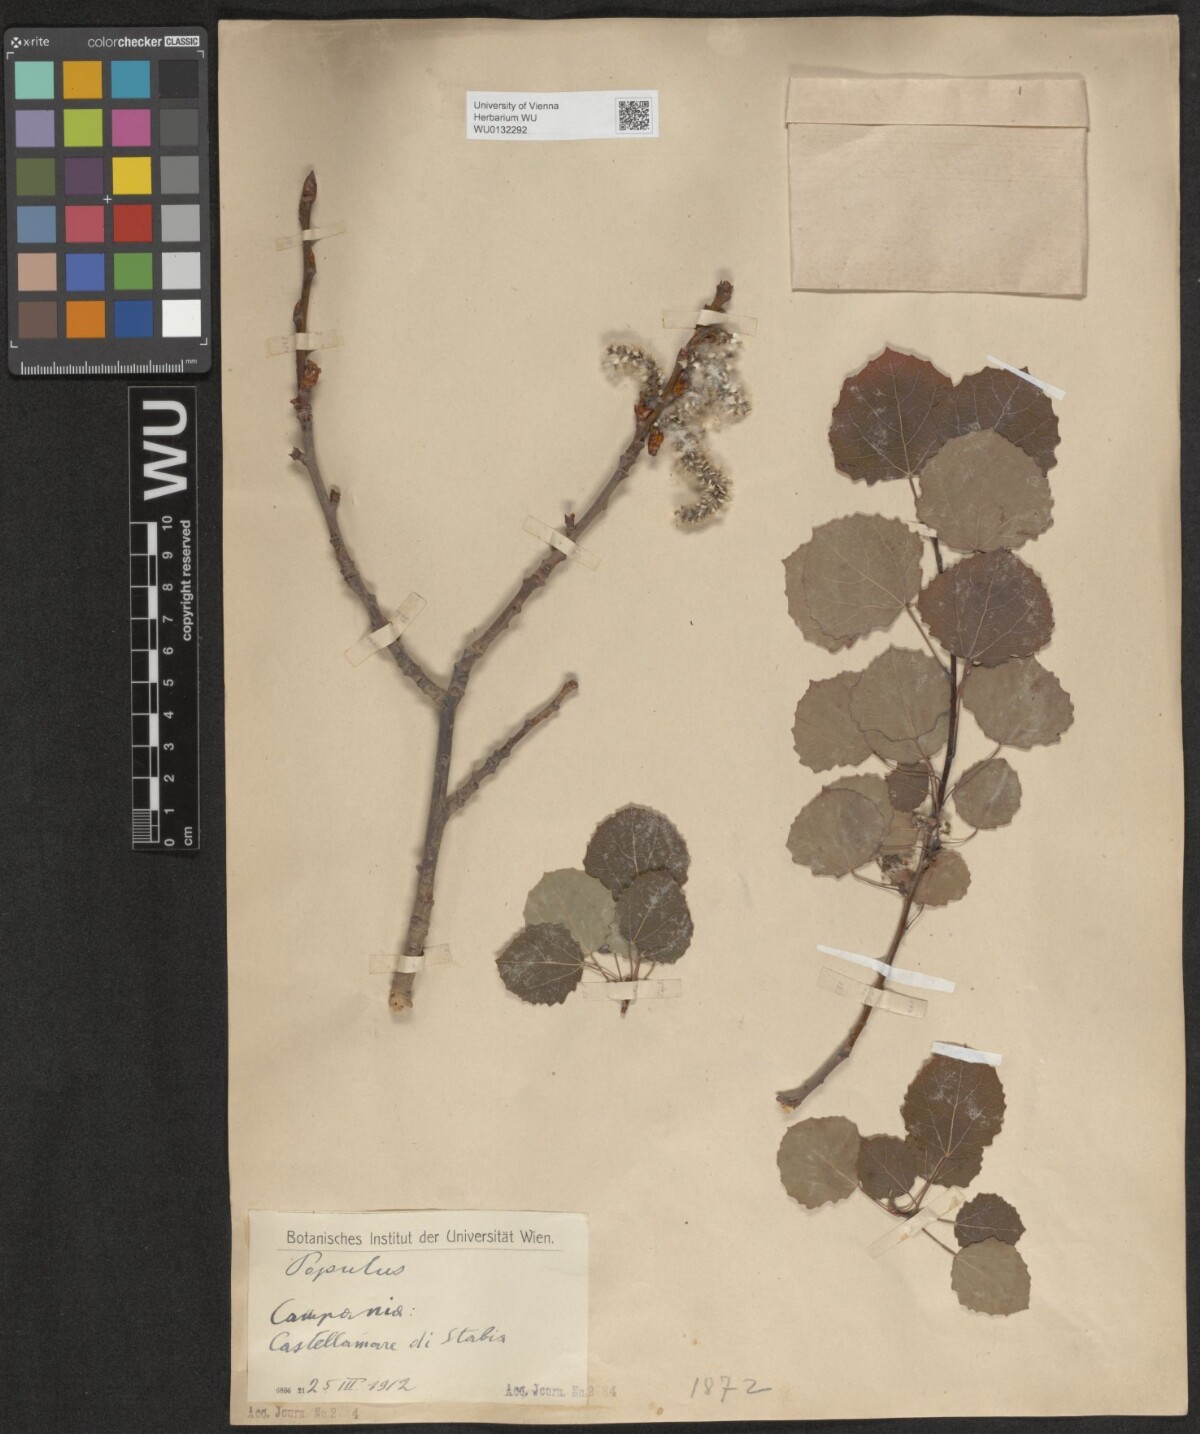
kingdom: Plantae
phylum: Tracheophyta
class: Magnoliopsida
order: Malpighiales
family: Salicaceae
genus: Populus
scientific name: Populus tremula
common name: European aspen
